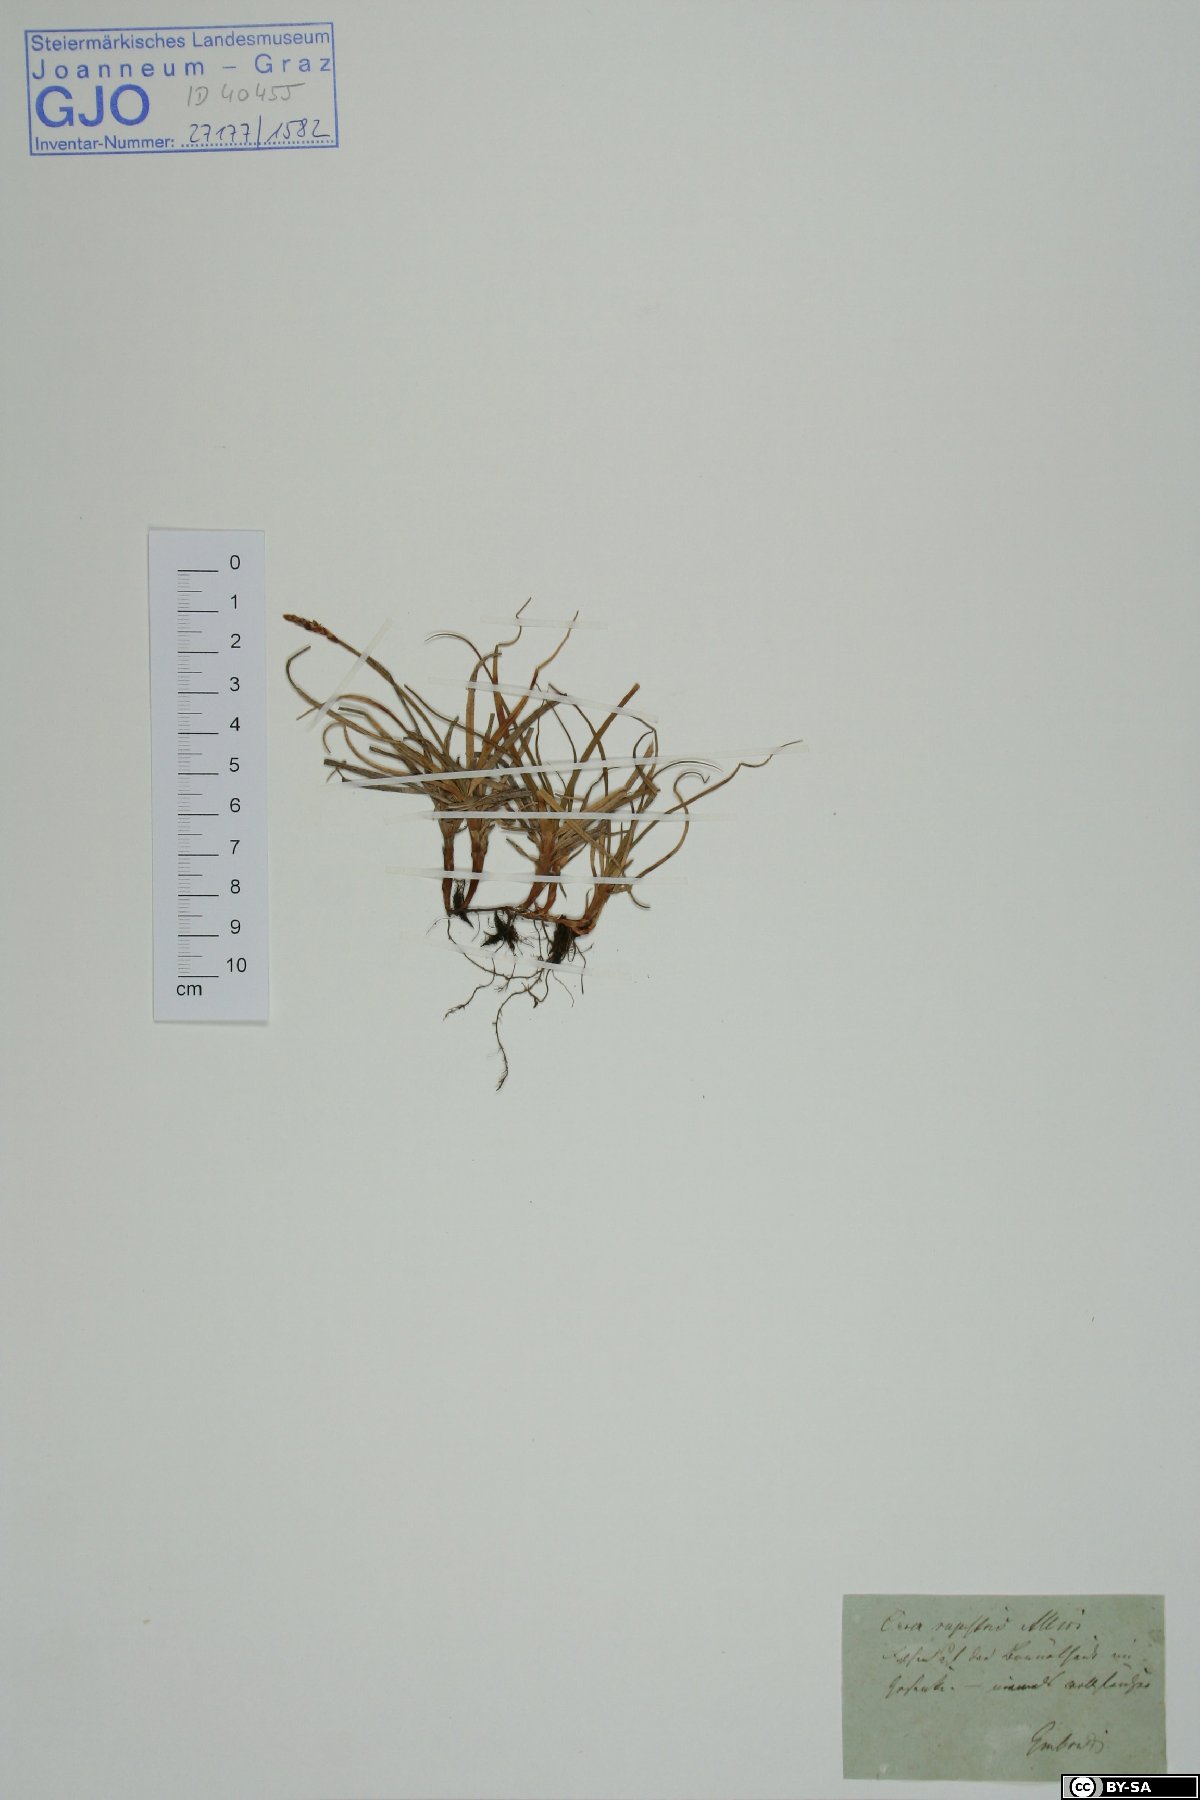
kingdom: Plantae
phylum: Tracheophyta
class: Liliopsida
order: Poales
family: Cyperaceae
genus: Carex
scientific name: Carex rupestris
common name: Rock sedge
